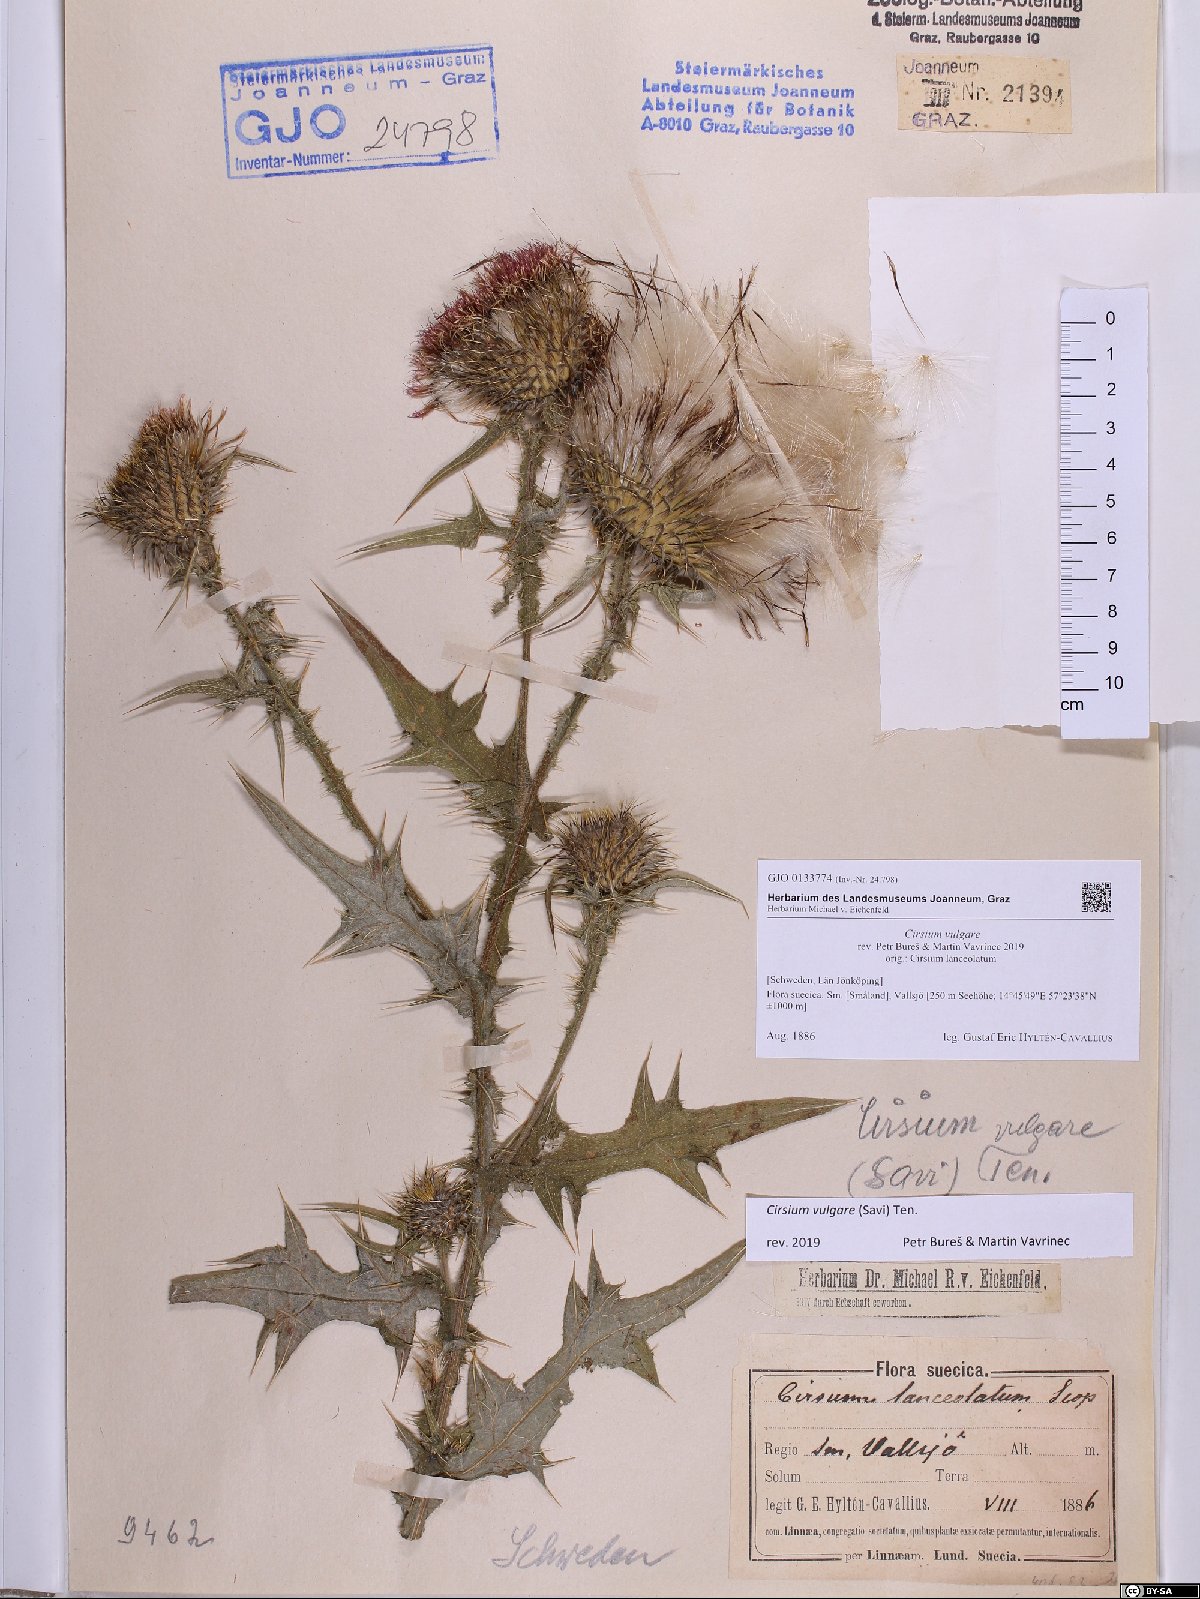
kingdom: Plantae
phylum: Tracheophyta
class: Magnoliopsida
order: Asterales
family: Asteraceae
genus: Cirsium
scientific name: Cirsium vulgare
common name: Bull thistle
